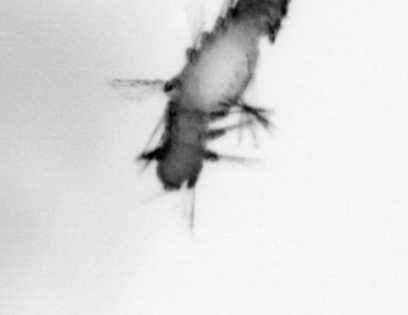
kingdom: Animalia
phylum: Annelida
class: Polychaeta
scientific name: Polychaeta
